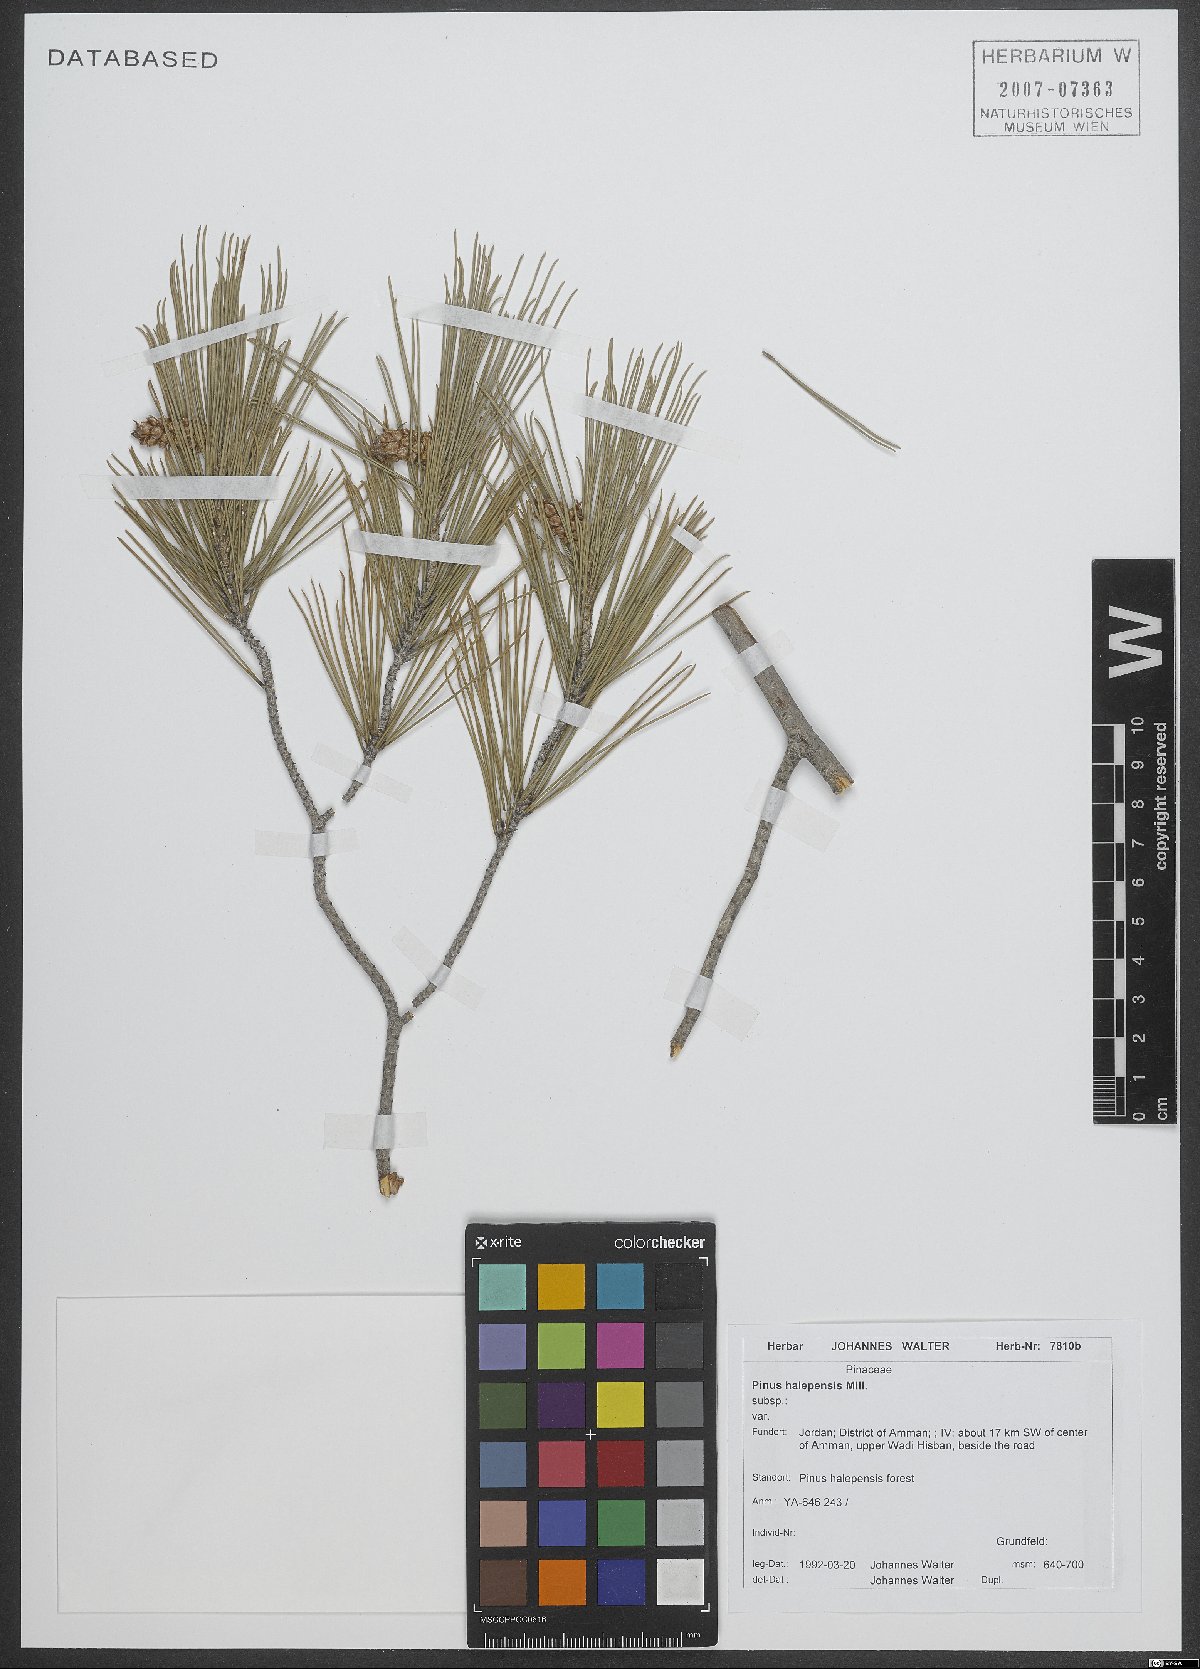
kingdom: Plantae
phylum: Tracheophyta
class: Pinopsida
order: Pinales
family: Pinaceae
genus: Pinus
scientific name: Pinus halepensis
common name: Aleppo pine
